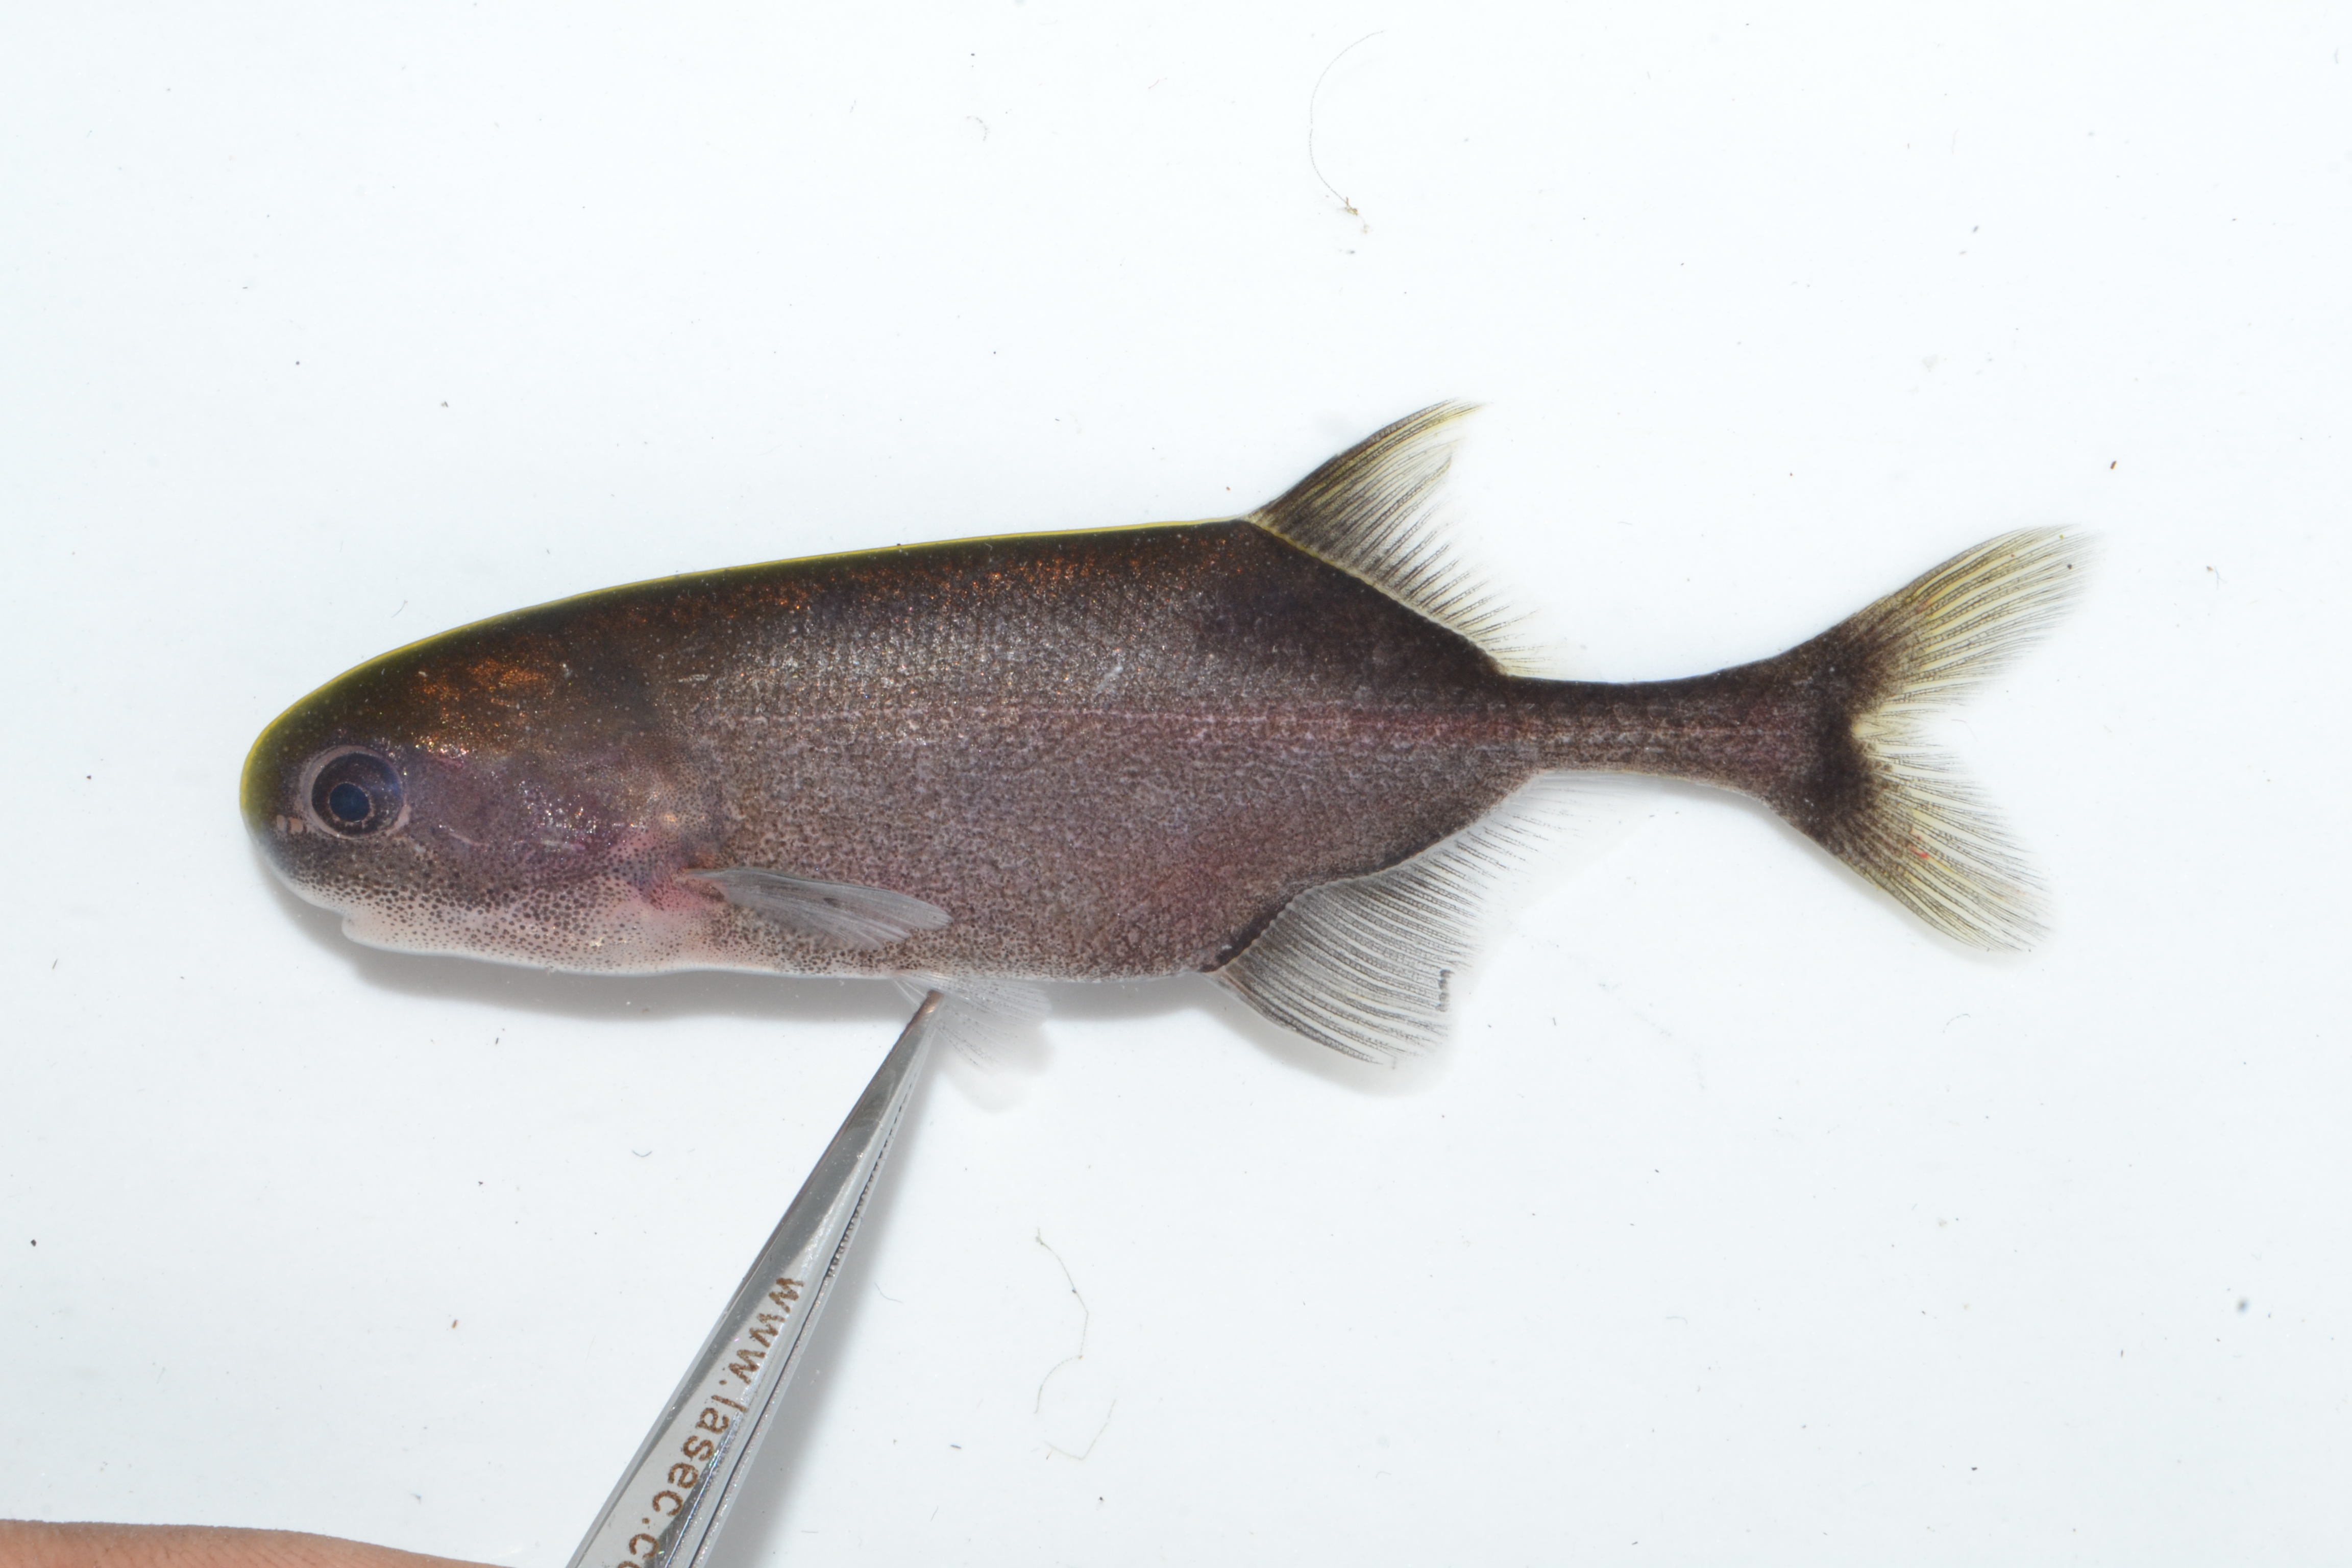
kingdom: Animalia
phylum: Chordata
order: Osteoglossiformes
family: Mormyridae
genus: Petrocephalus
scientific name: Petrocephalus okavangensis
